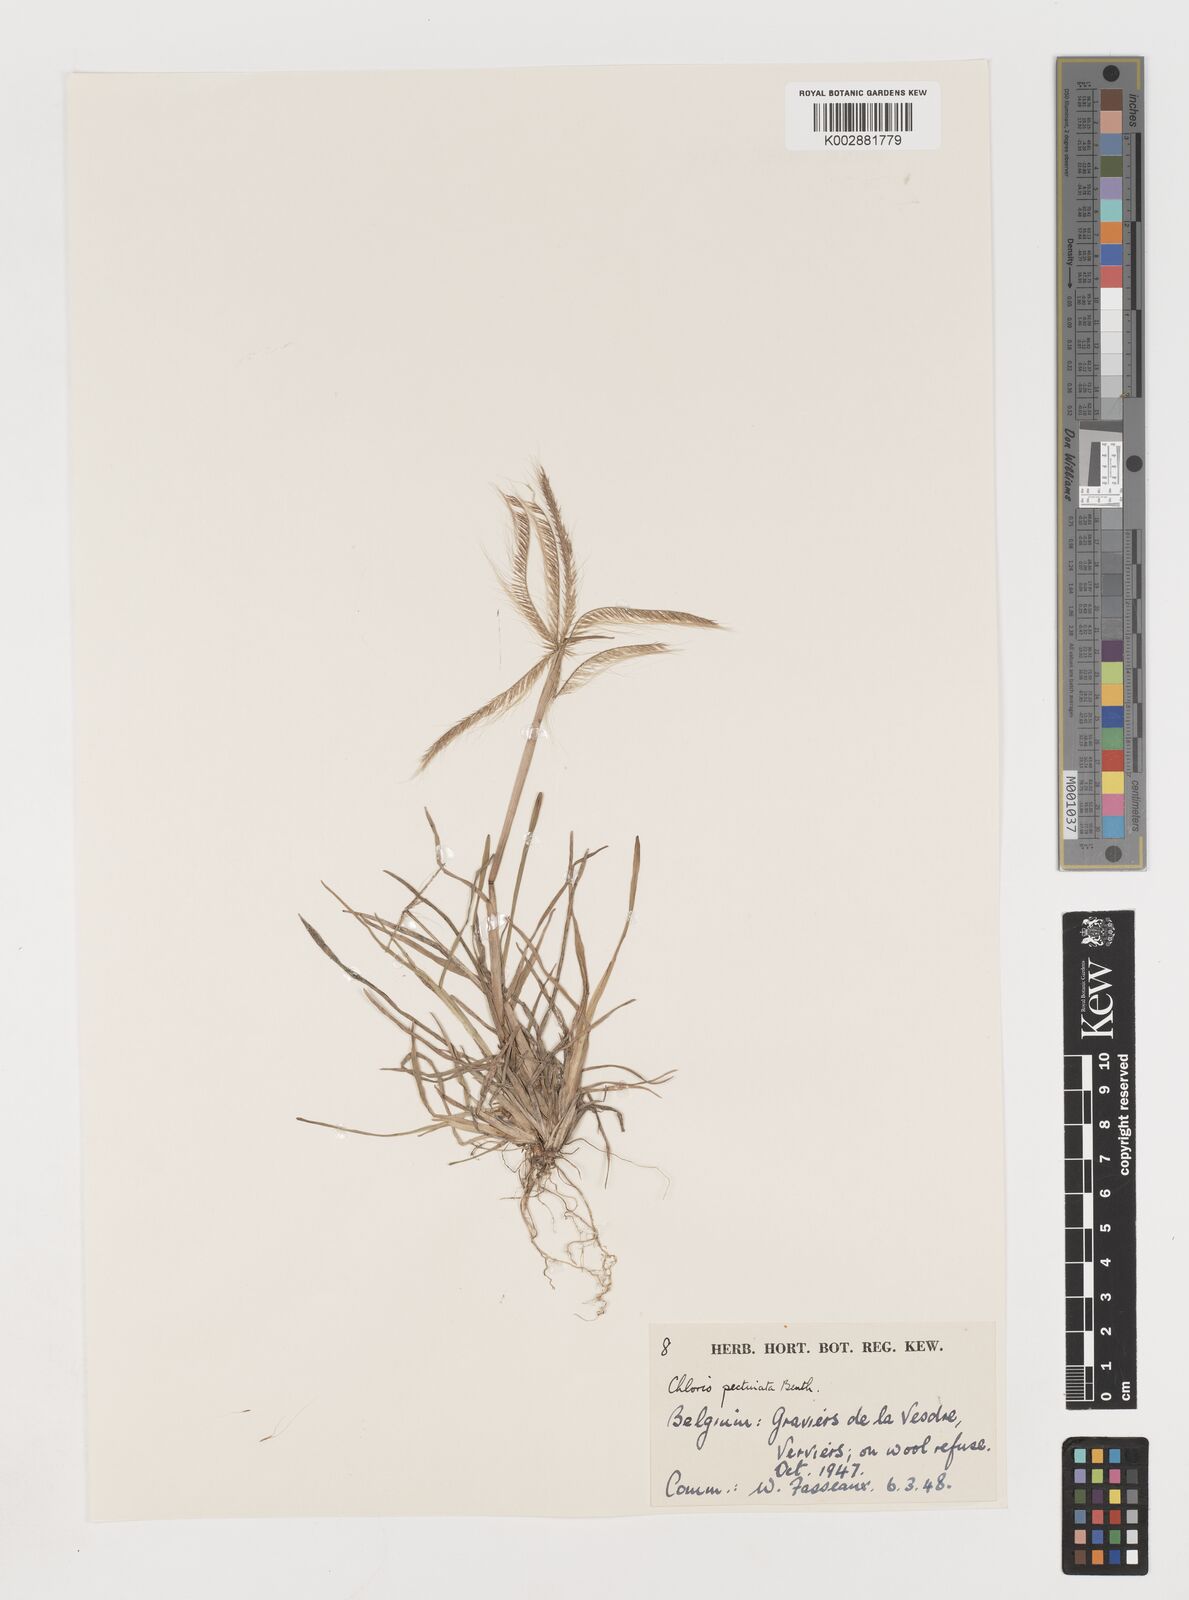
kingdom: Plantae
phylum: Tracheophyta
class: Liliopsida
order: Poales
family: Poaceae
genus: Chloris
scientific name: Chloris pectinata
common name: Comb windmill grass
